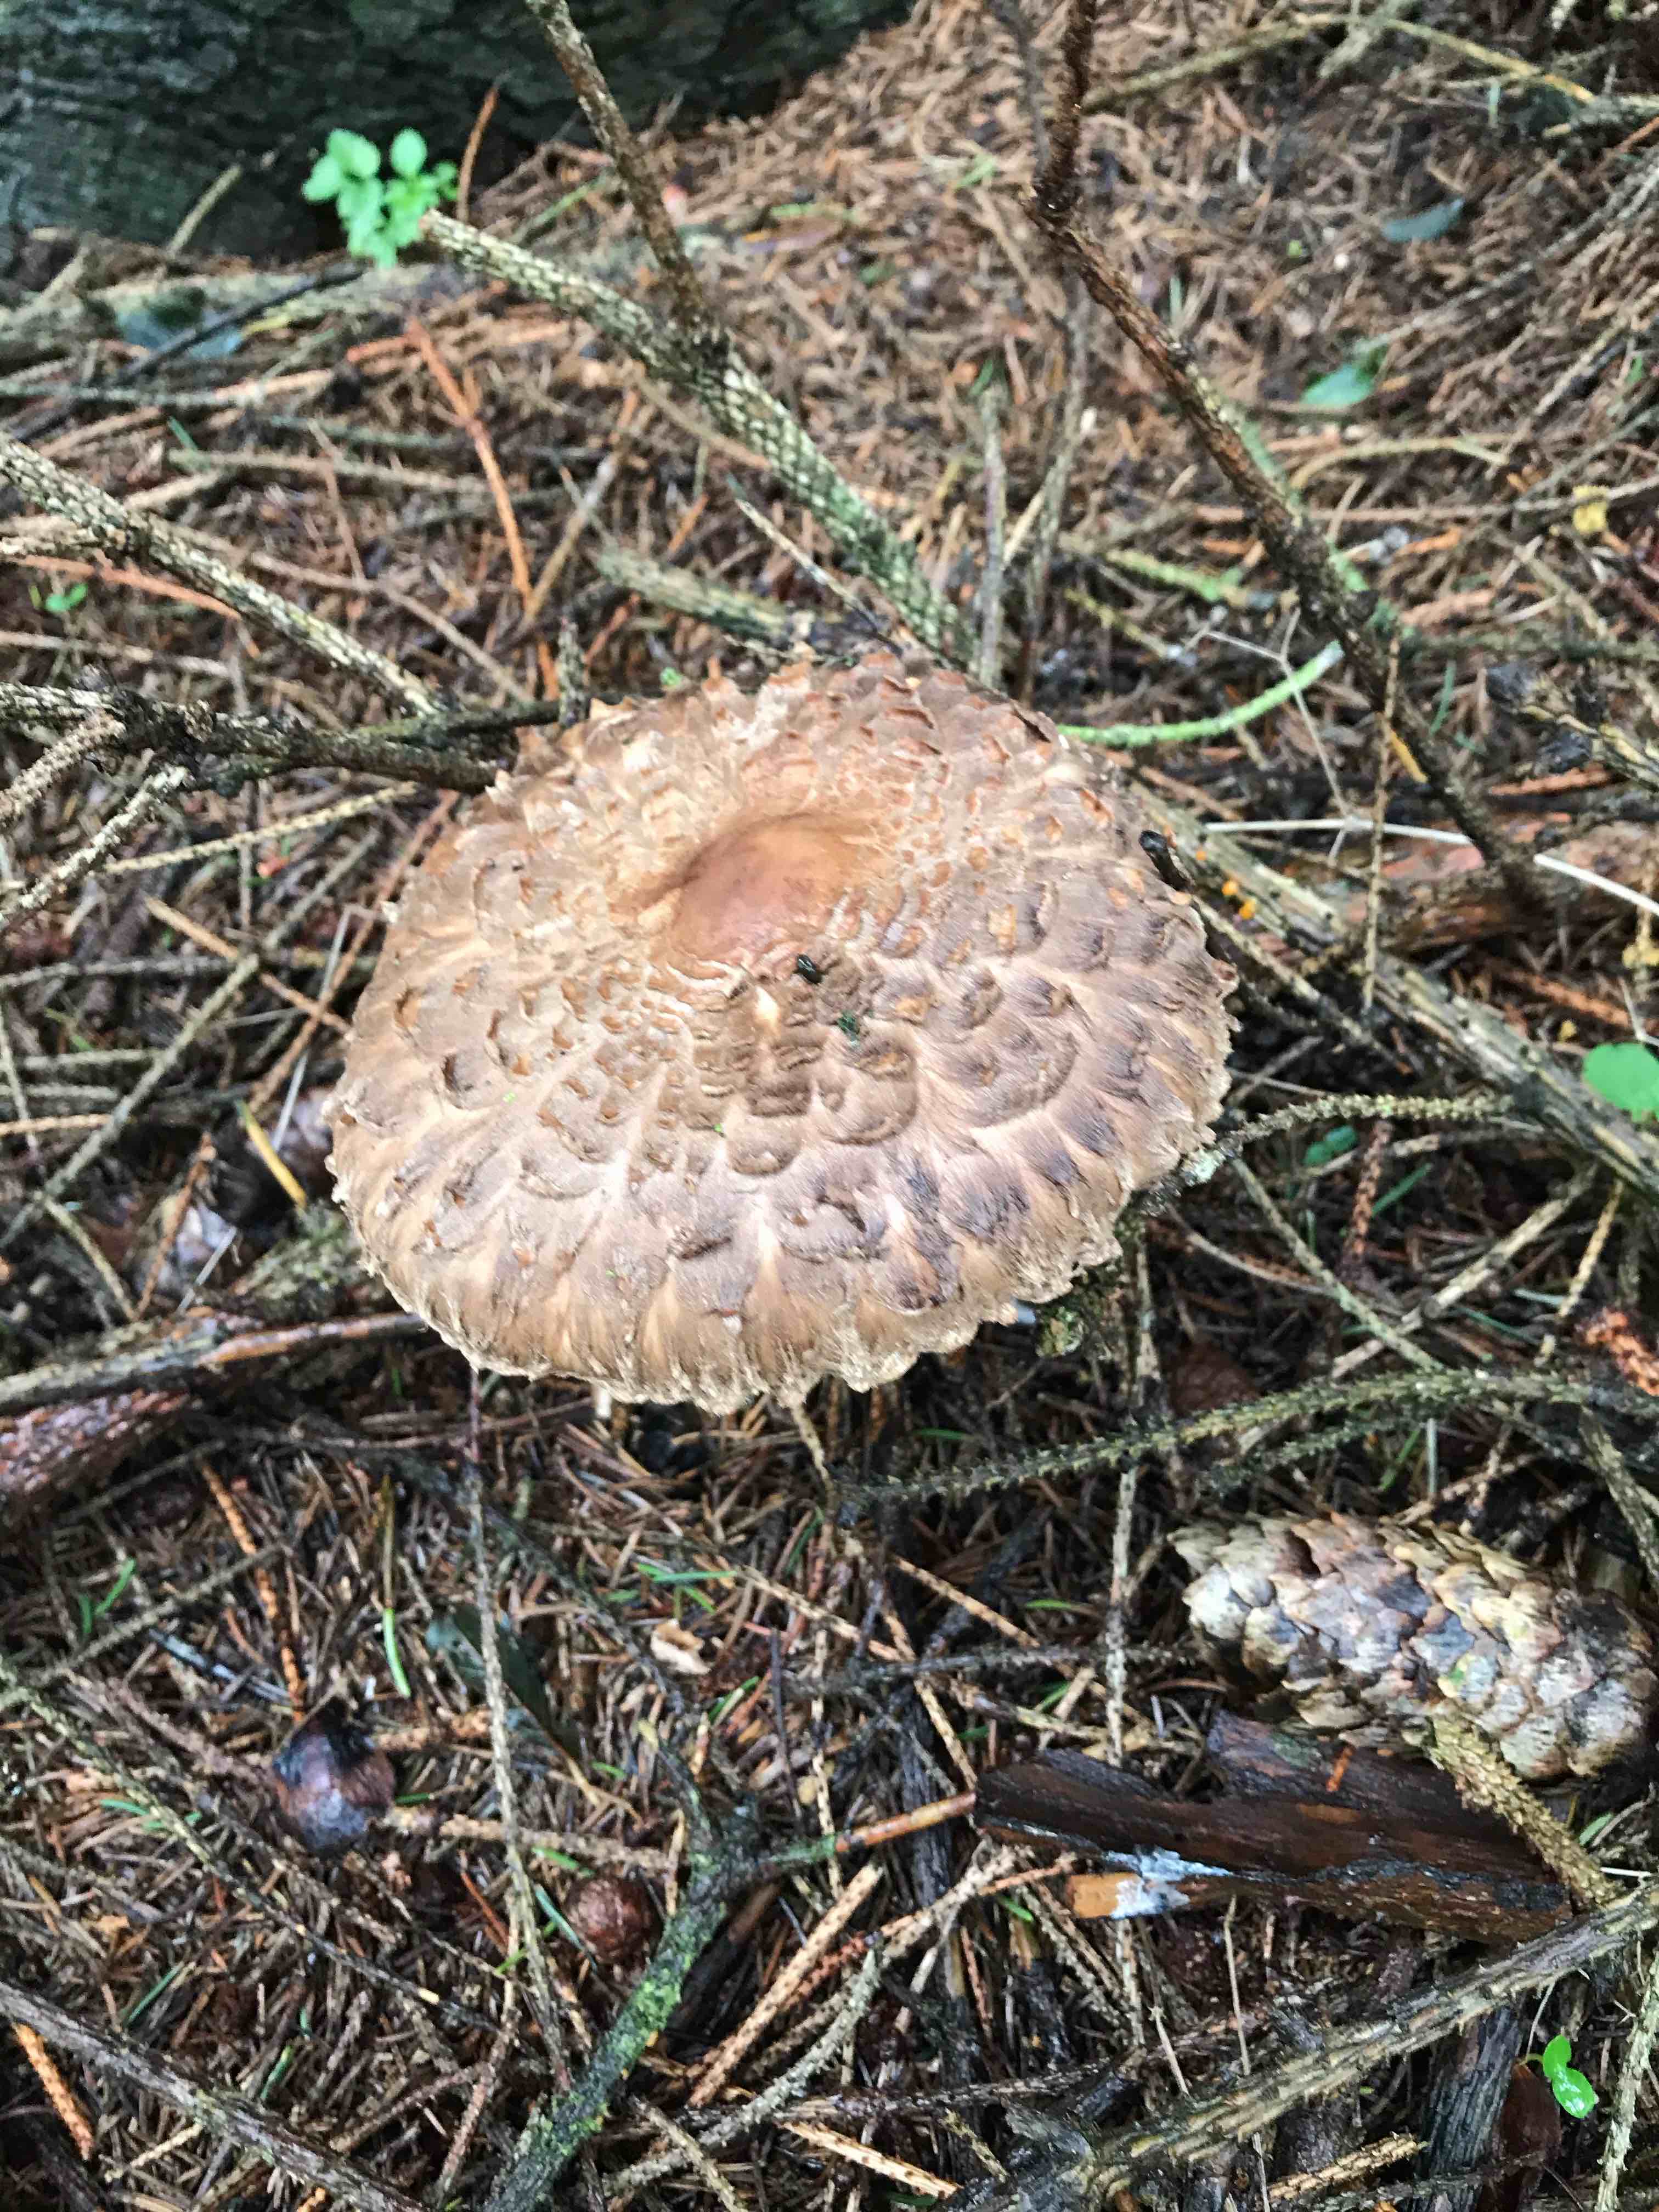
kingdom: Fungi
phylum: Basidiomycota
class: Agaricomycetes
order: Agaricales
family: Agaricaceae
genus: Chlorophyllum
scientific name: Chlorophyllum olivieri
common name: almindelig rabarberhat
